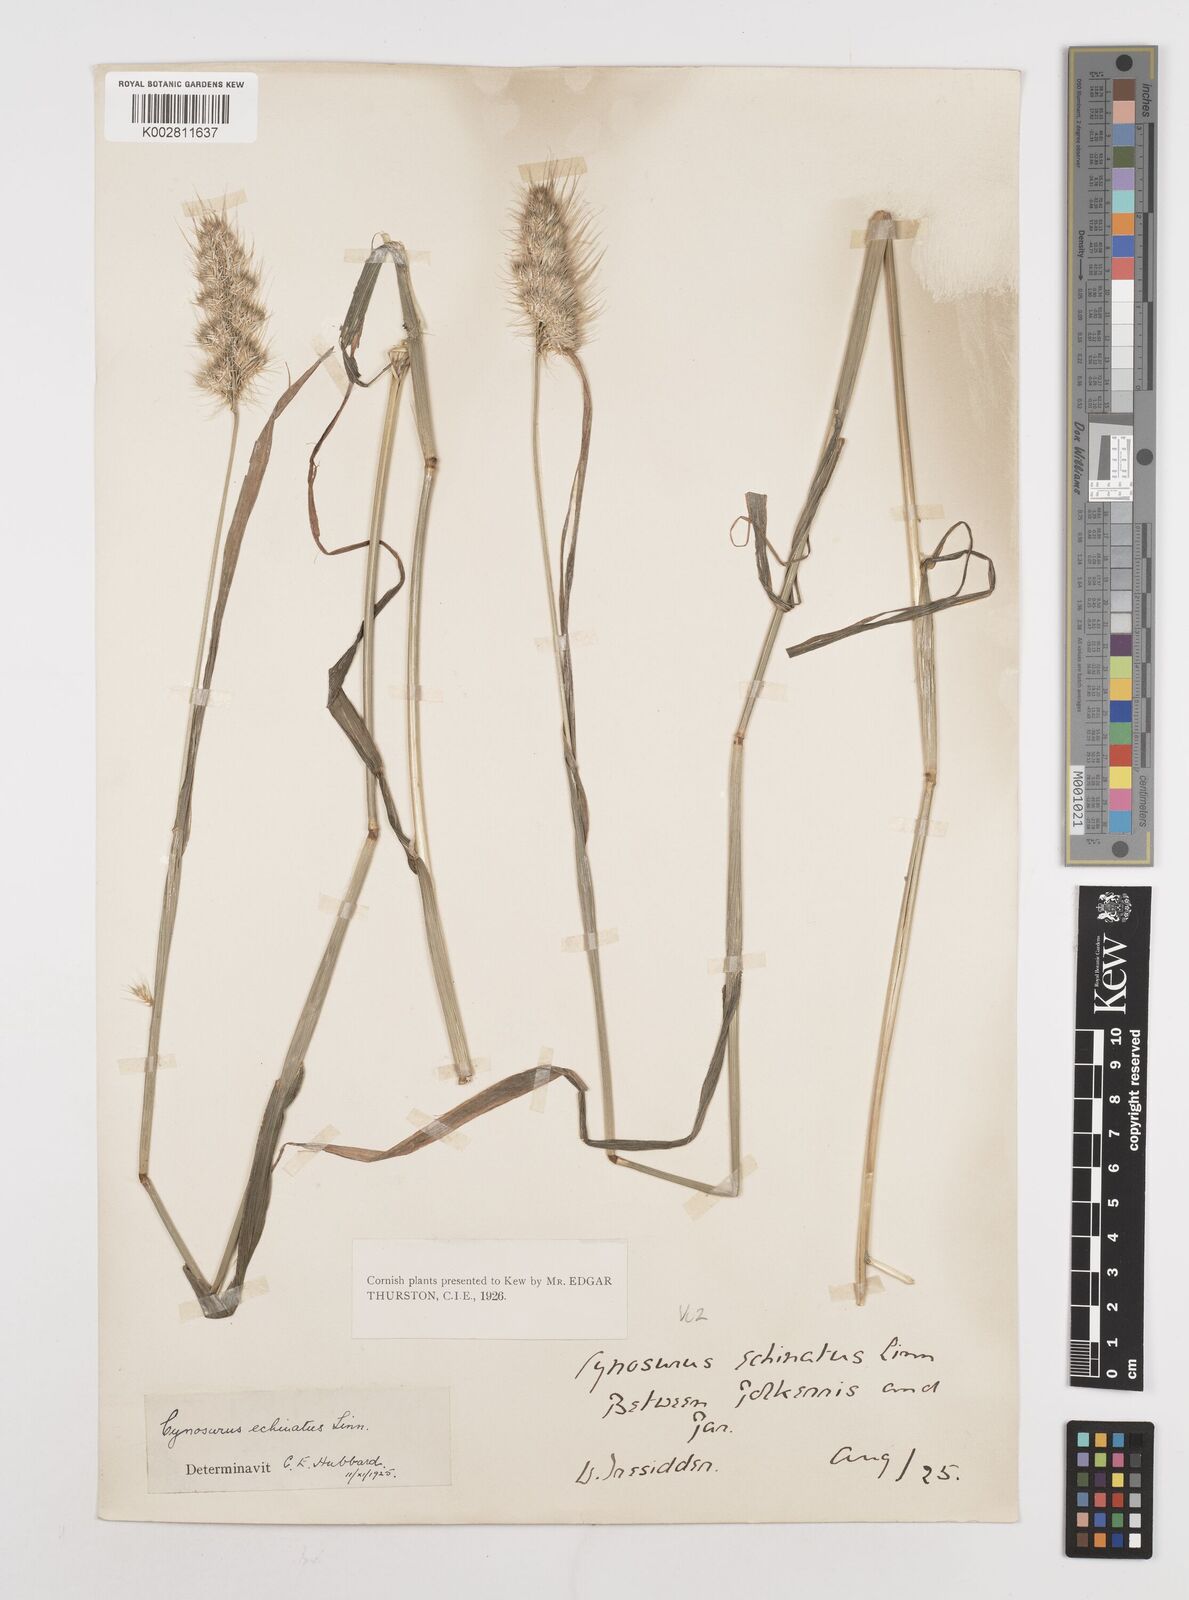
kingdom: Plantae
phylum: Tracheophyta
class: Liliopsida
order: Poales
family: Poaceae
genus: Cynosurus
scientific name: Cynosurus echinatus
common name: Rough dog's-tail
